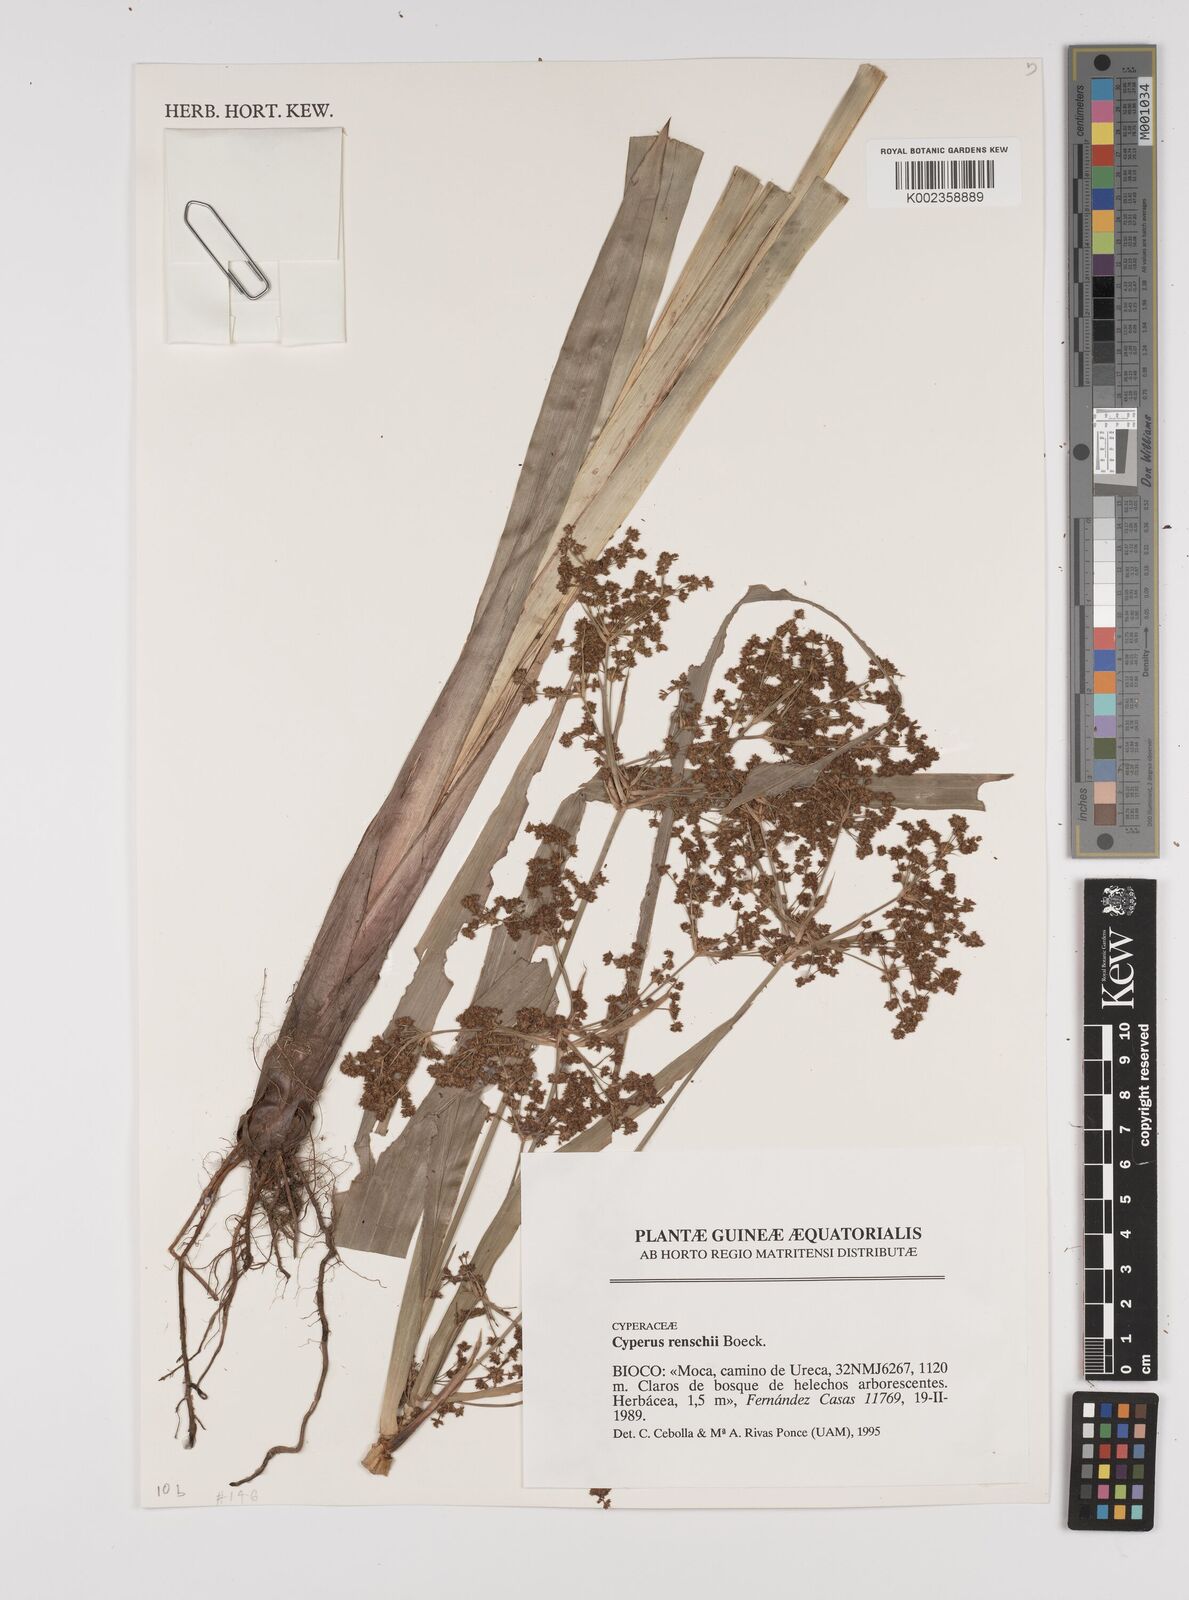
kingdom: Plantae
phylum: Tracheophyta
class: Liliopsida
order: Poales
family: Cyperaceae
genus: Cyperus
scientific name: Cyperus renschii
